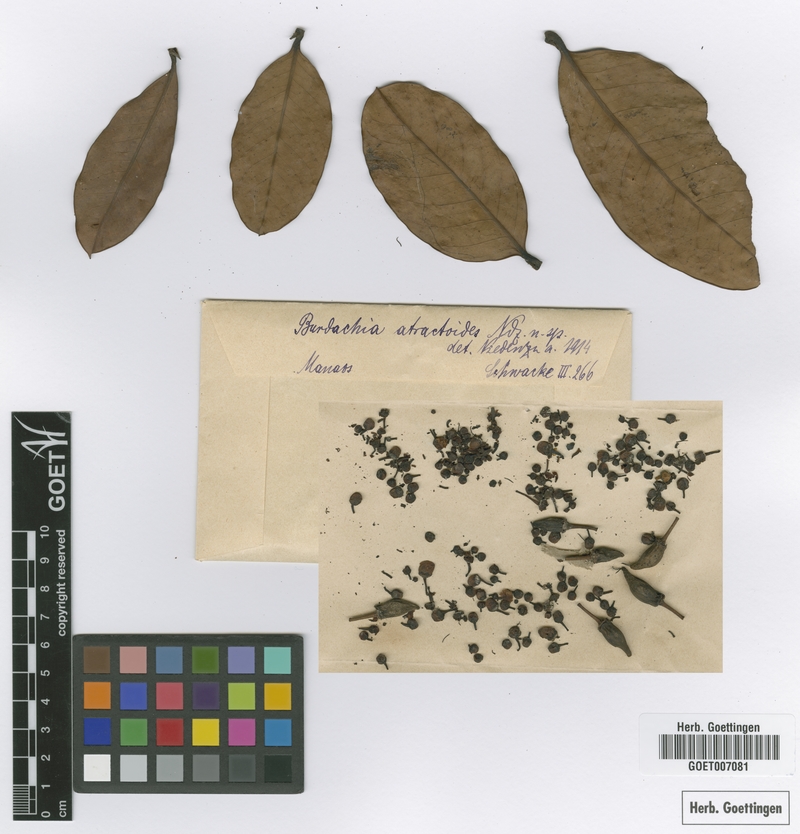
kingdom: Plantae
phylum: Tracheophyta
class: Magnoliopsida
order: Malpighiales
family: Malpighiaceae
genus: Burdachia
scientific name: Burdachia sphaerocarpa
